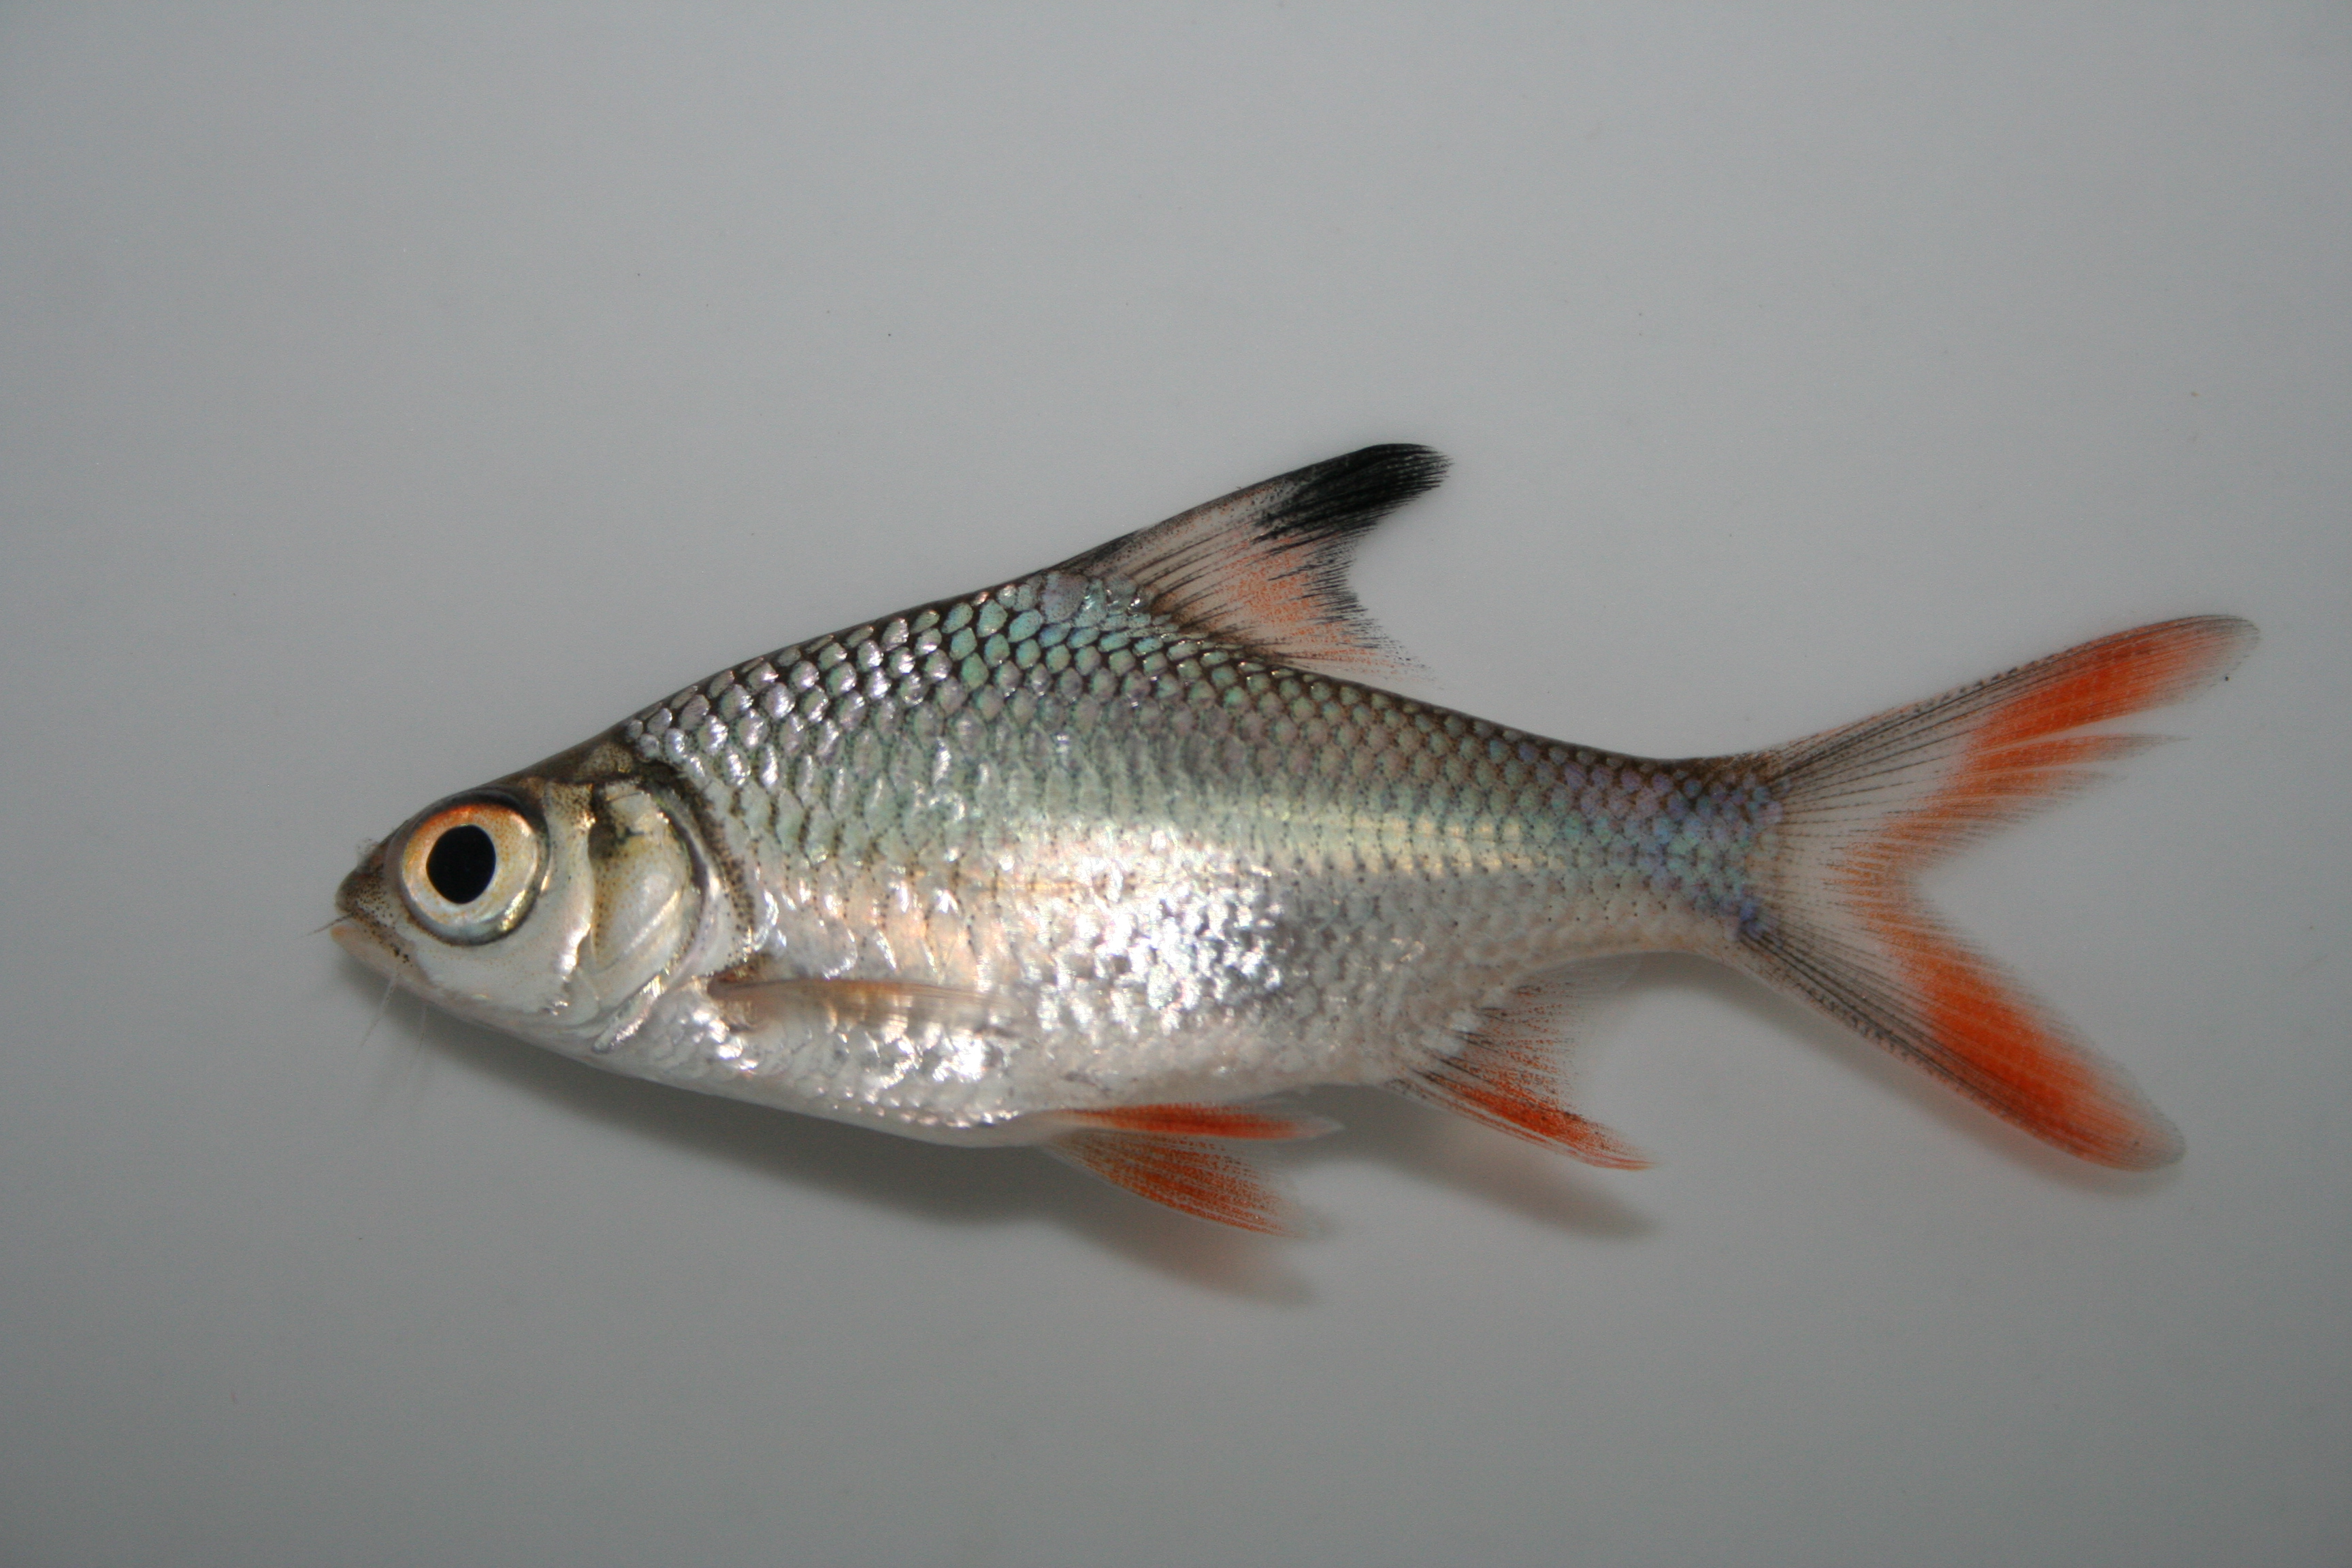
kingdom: Animalia
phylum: Chordata
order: Cypriniformes
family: Cyprinidae
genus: Barbonymus
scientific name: Barbonymus altus
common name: Red tailed tinfoil
